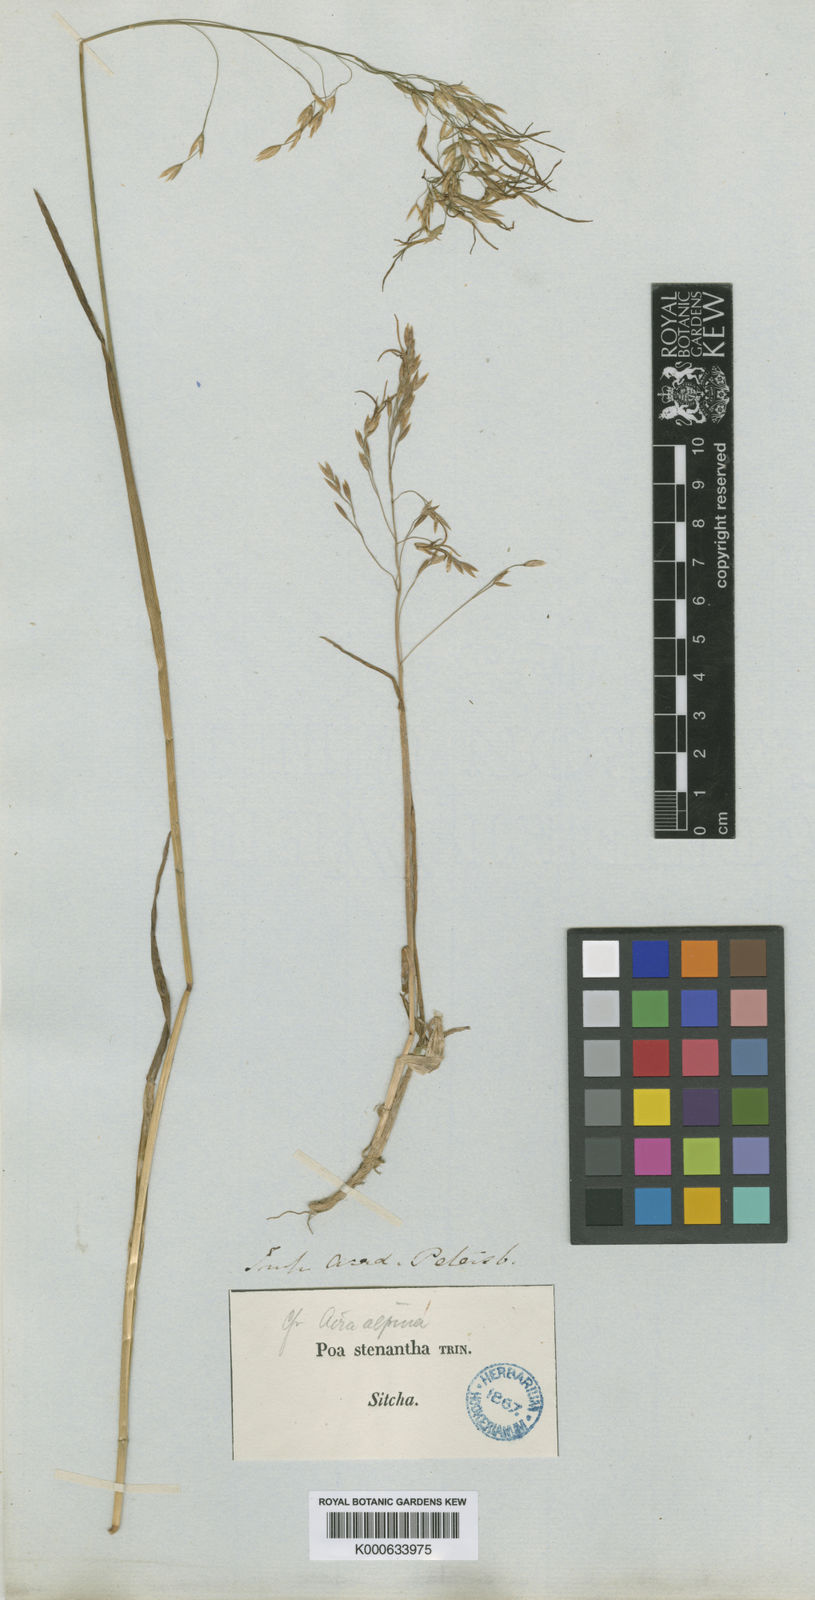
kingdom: Plantae
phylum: Tracheophyta
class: Liliopsida
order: Poales
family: Poaceae
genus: Poa
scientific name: Poa stenantha
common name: Narrow-flowered bluegrass
